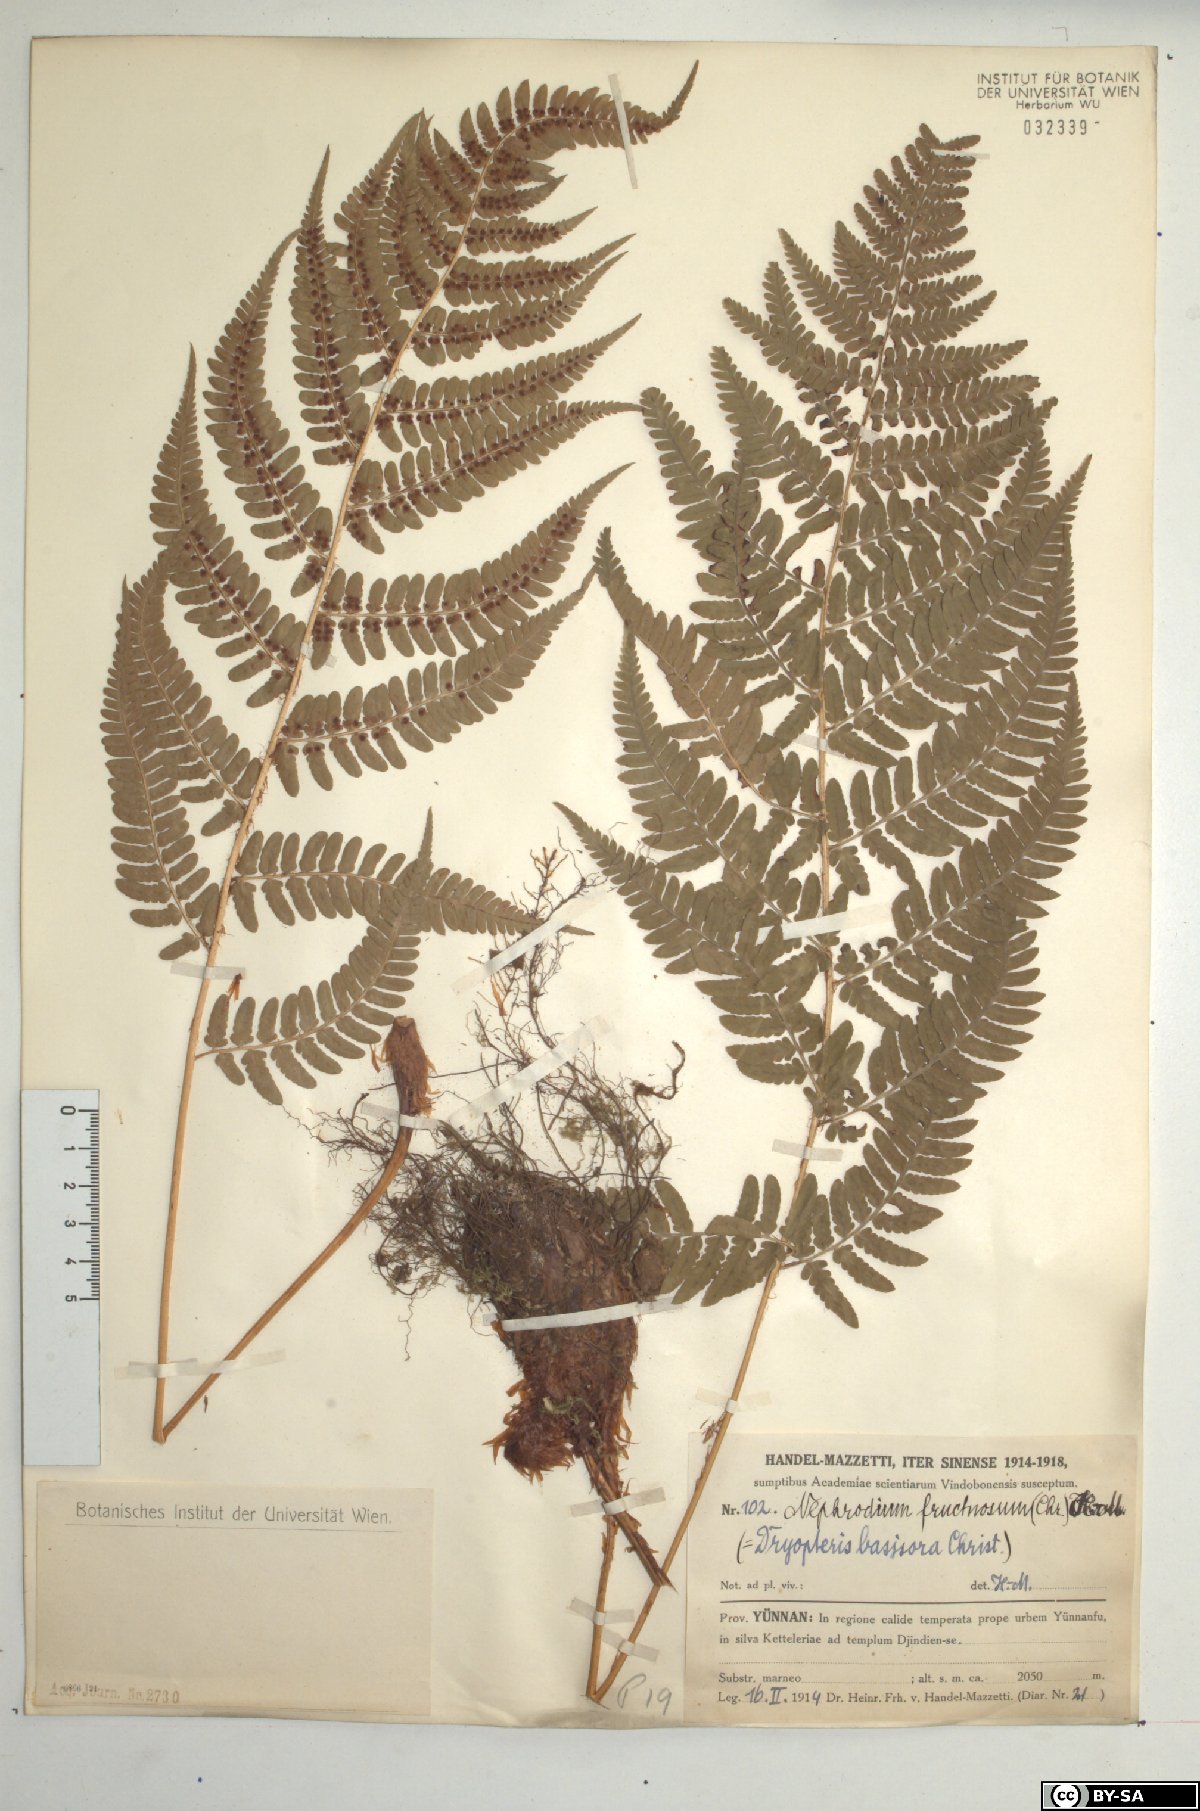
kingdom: Plantae
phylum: Tracheophyta
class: Polypodiopsida
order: Polypodiales
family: Dryopteridaceae
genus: Dryopteris
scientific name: Dryopteris fructuosa
